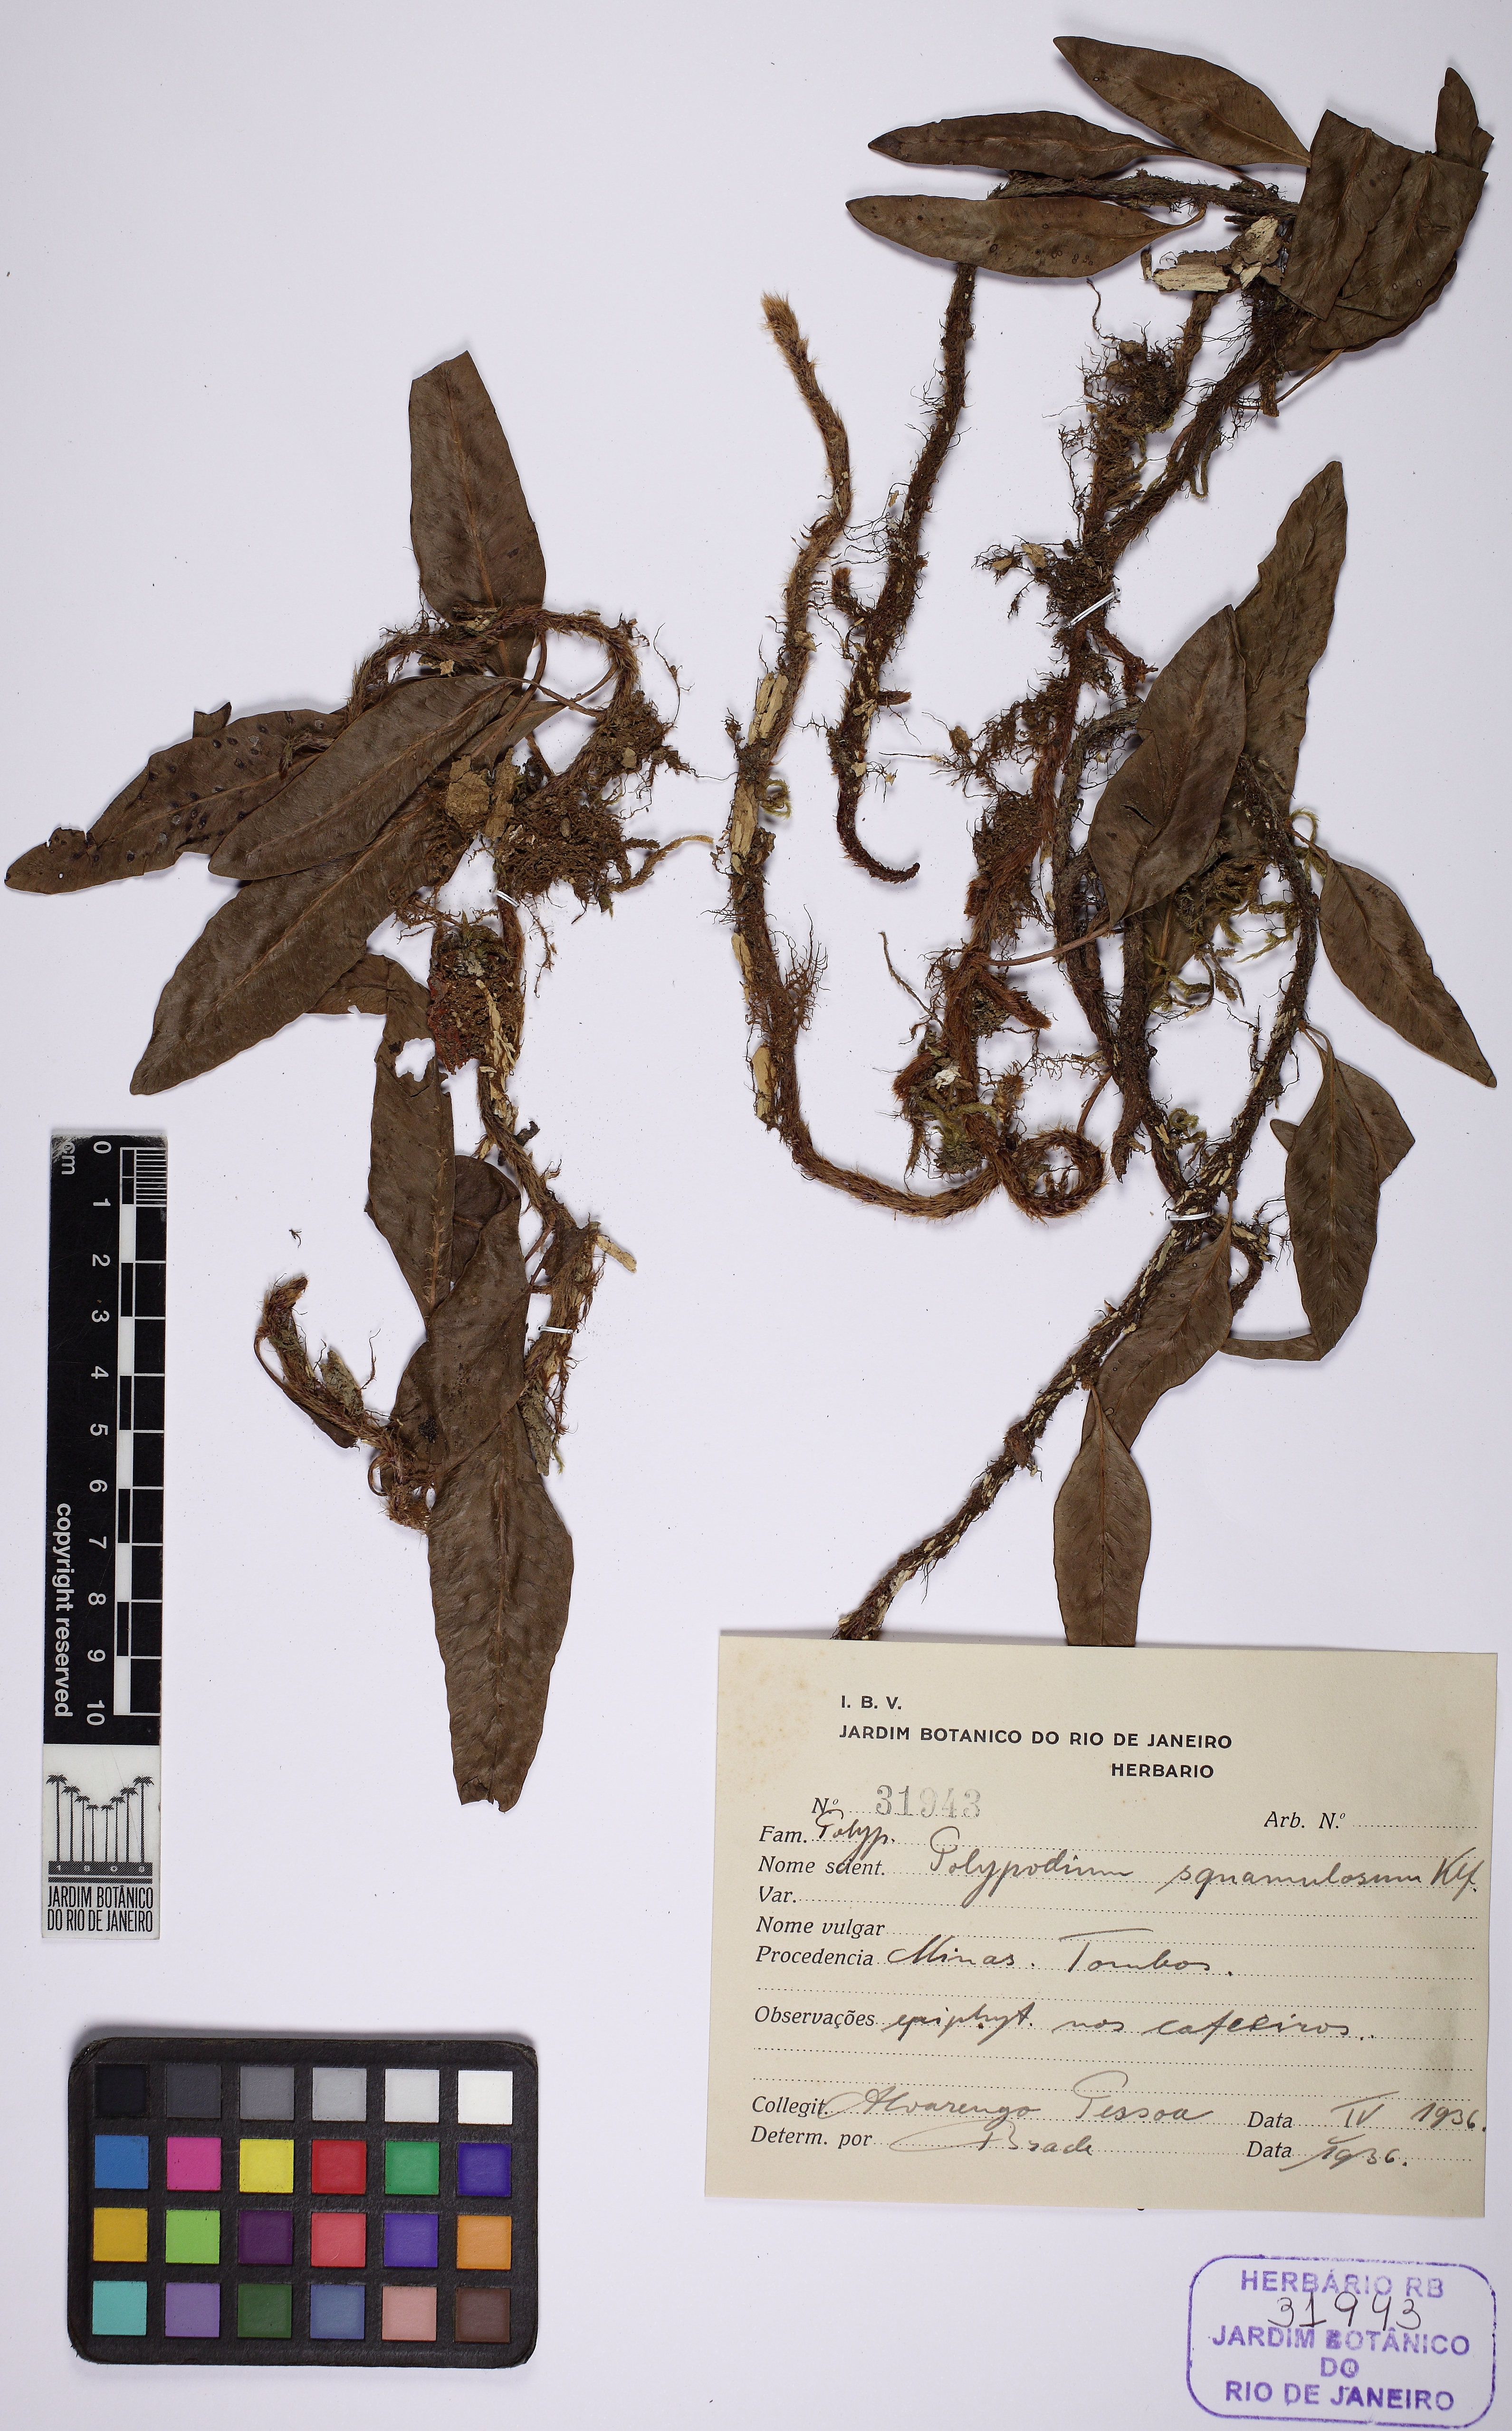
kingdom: Plantae
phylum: Tracheophyta
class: Polypodiopsida
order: Polypodiales
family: Polypodiaceae
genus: Microgramma
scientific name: Microgramma squamulosa
